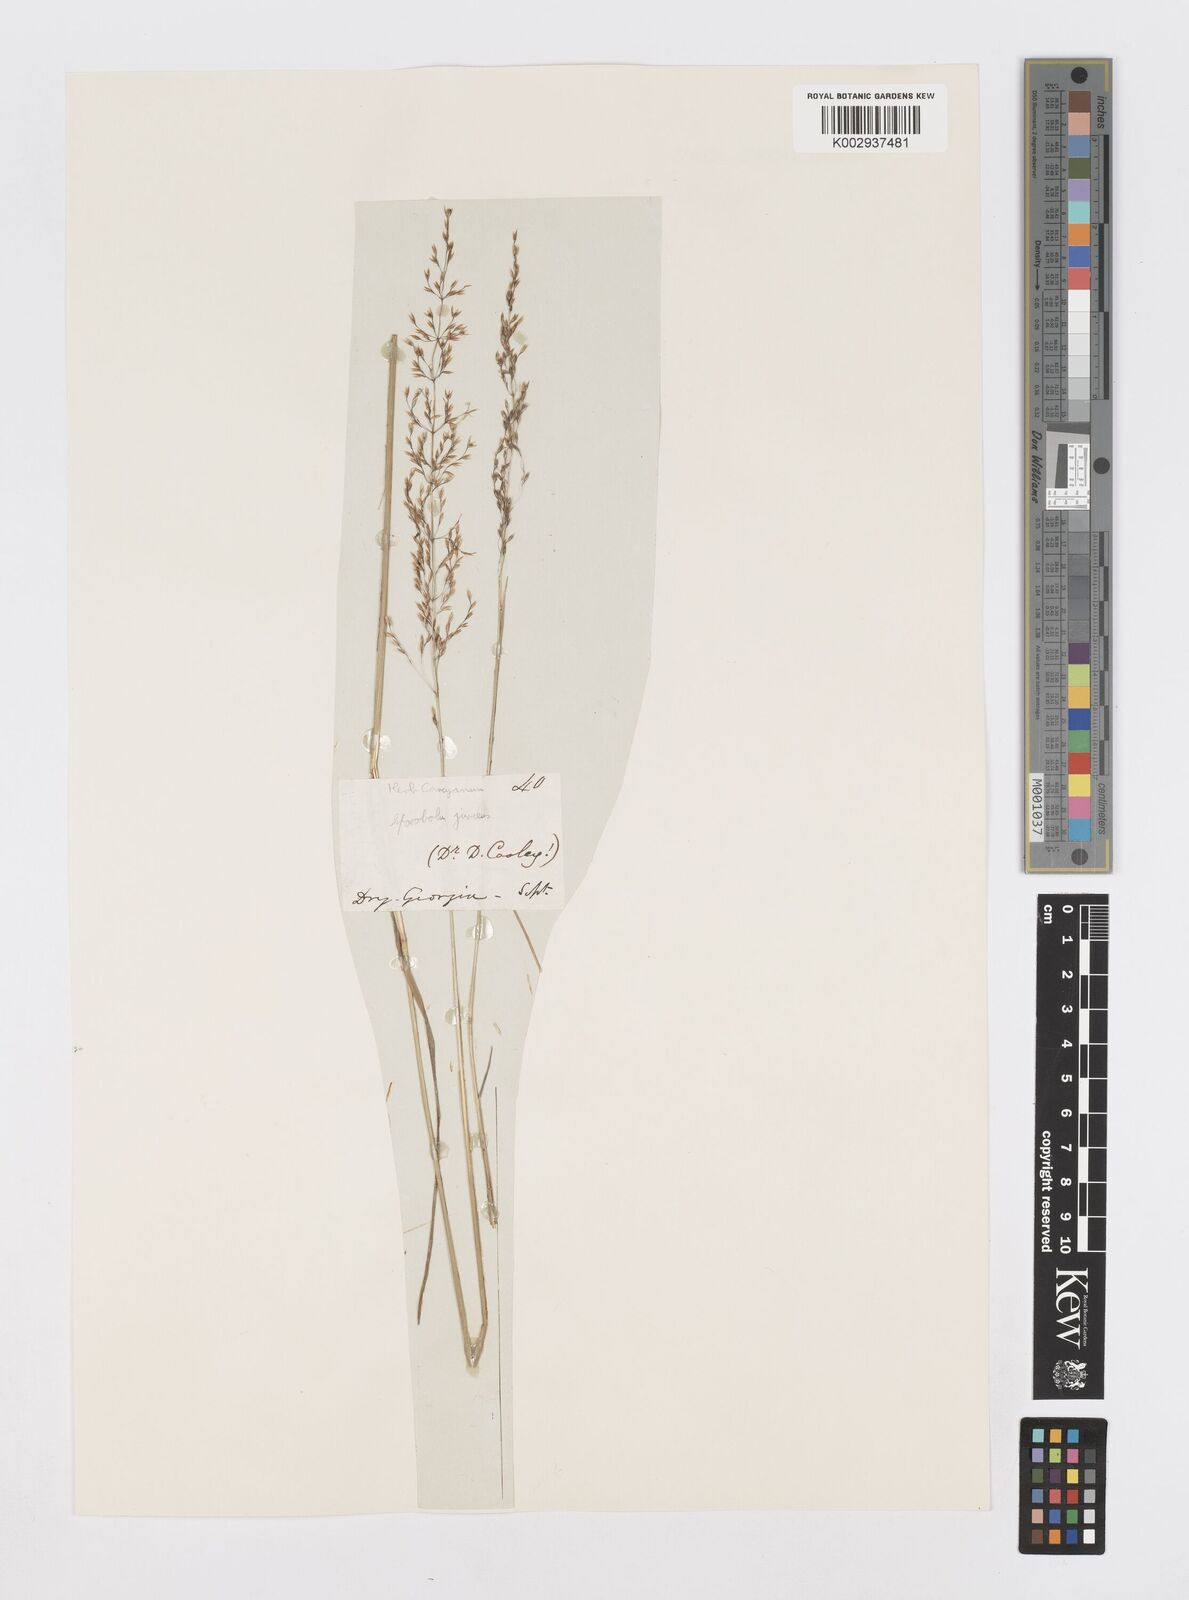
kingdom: Plantae
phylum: Tracheophyta
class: Liliopsida
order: Poales
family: Poaceae
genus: Sporobolus
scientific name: Sporobolus junceus
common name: Lizard grass
